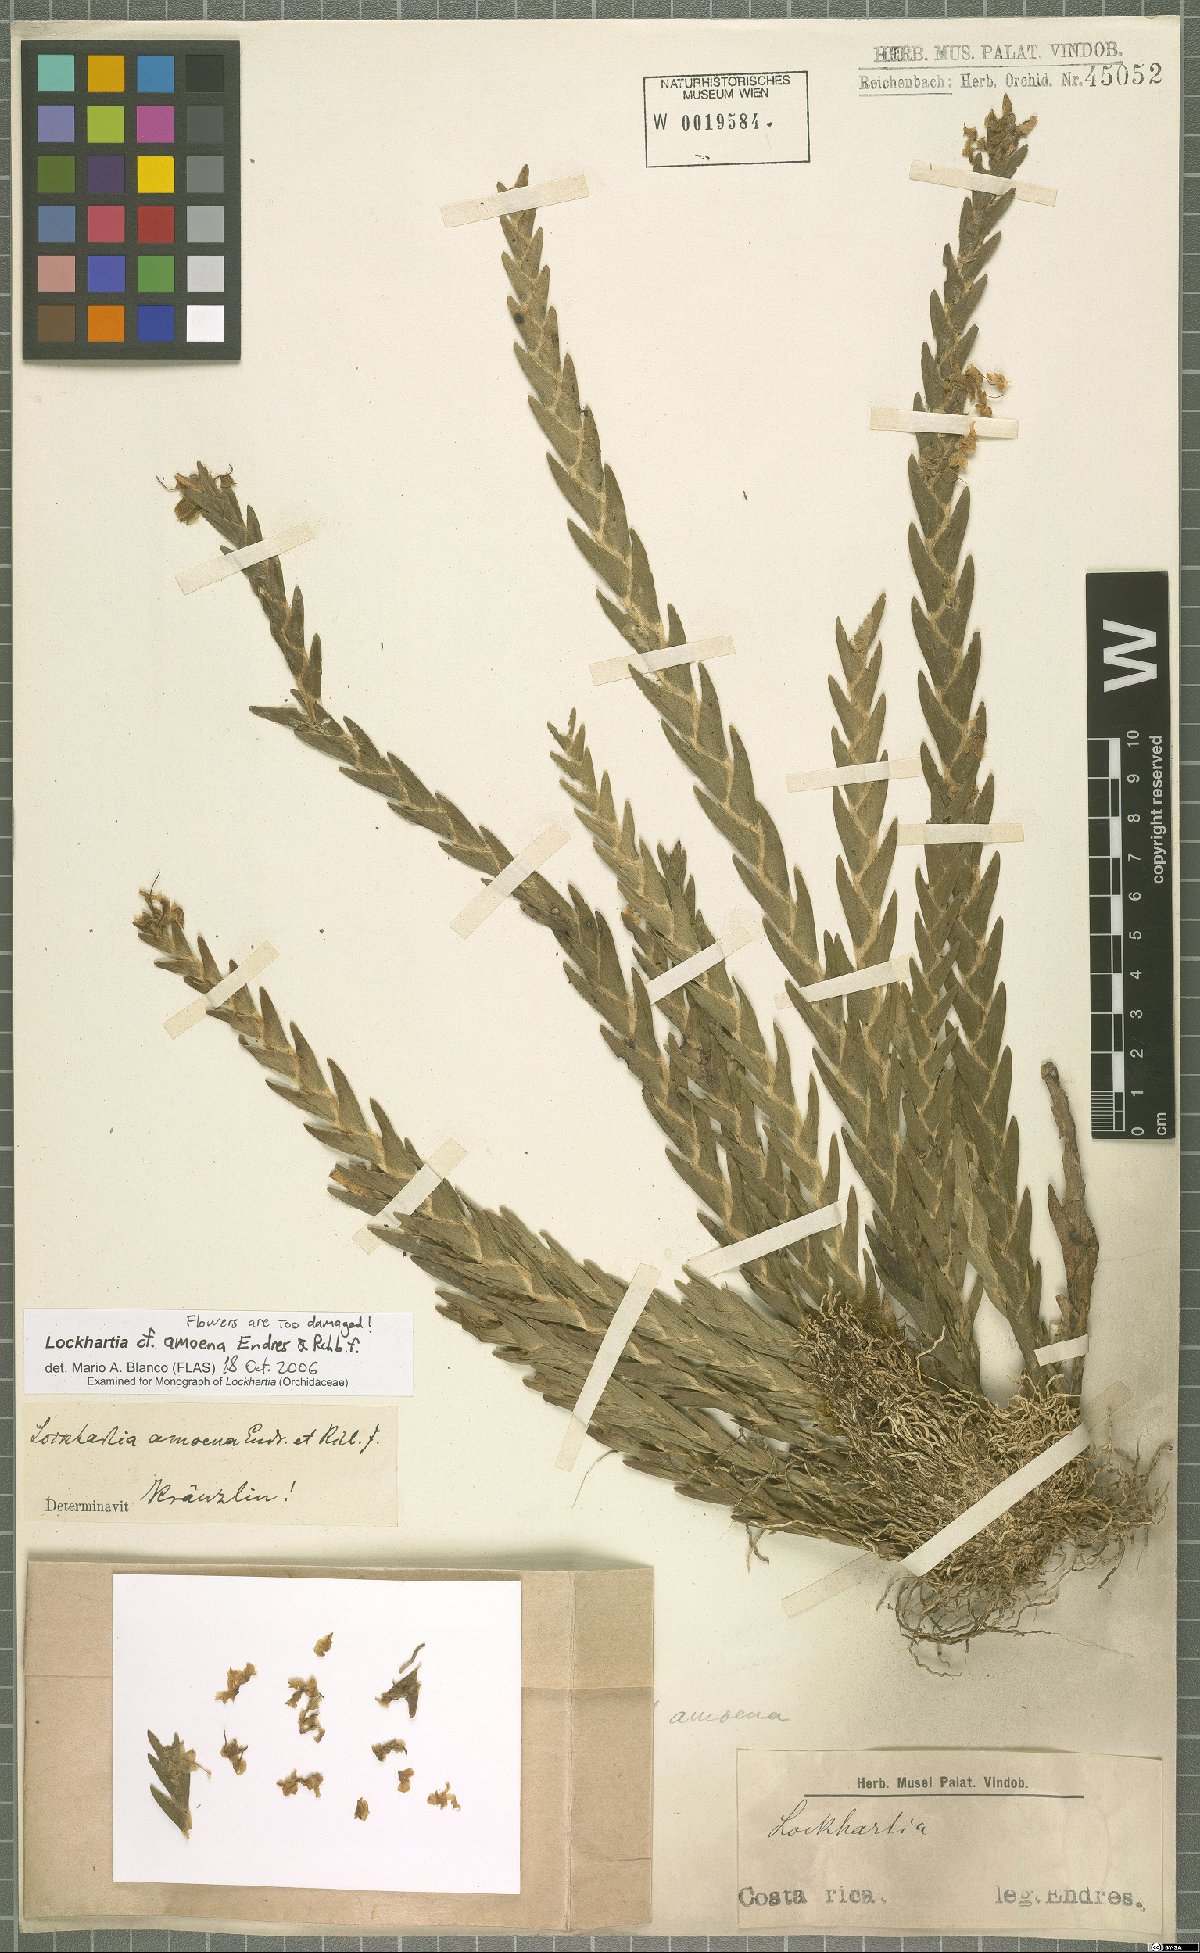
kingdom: Plantae
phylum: Tracheophyta
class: Liliopsida
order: Asparagales
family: Orchidaceae
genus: Lockhartia
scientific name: Lockhartia amoena
